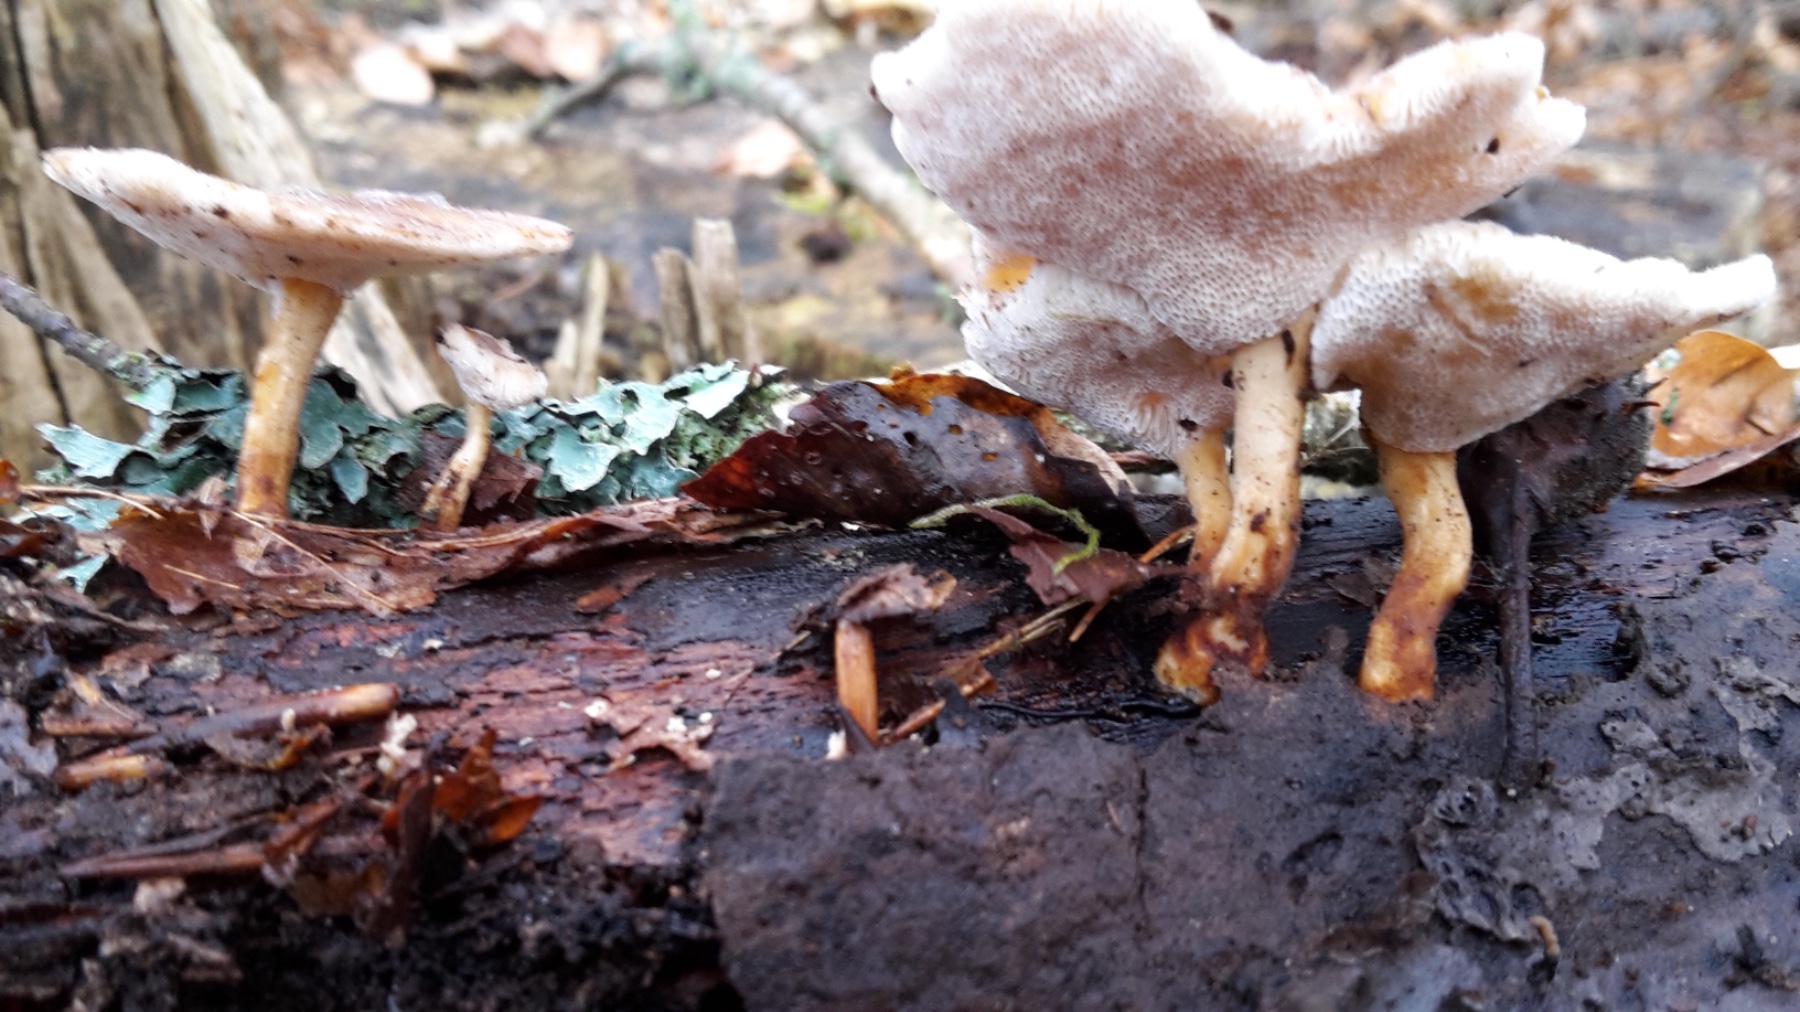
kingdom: Fungi
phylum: Basidiomycota
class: Agaricomycetes
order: Polyporales
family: Polyporaceae
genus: Lentinus
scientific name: Lentinus brumalis
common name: vinter-stilkporesvamp
